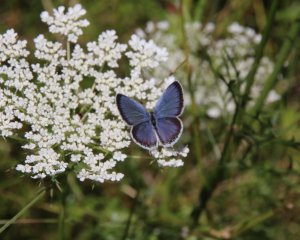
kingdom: Animalia
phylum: Arthropoda
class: Insecta
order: Lepidoptera
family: Lycaenidae
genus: Elkalyce
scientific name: Elkalyce comyntas
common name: Eastern Tailed-Blue
